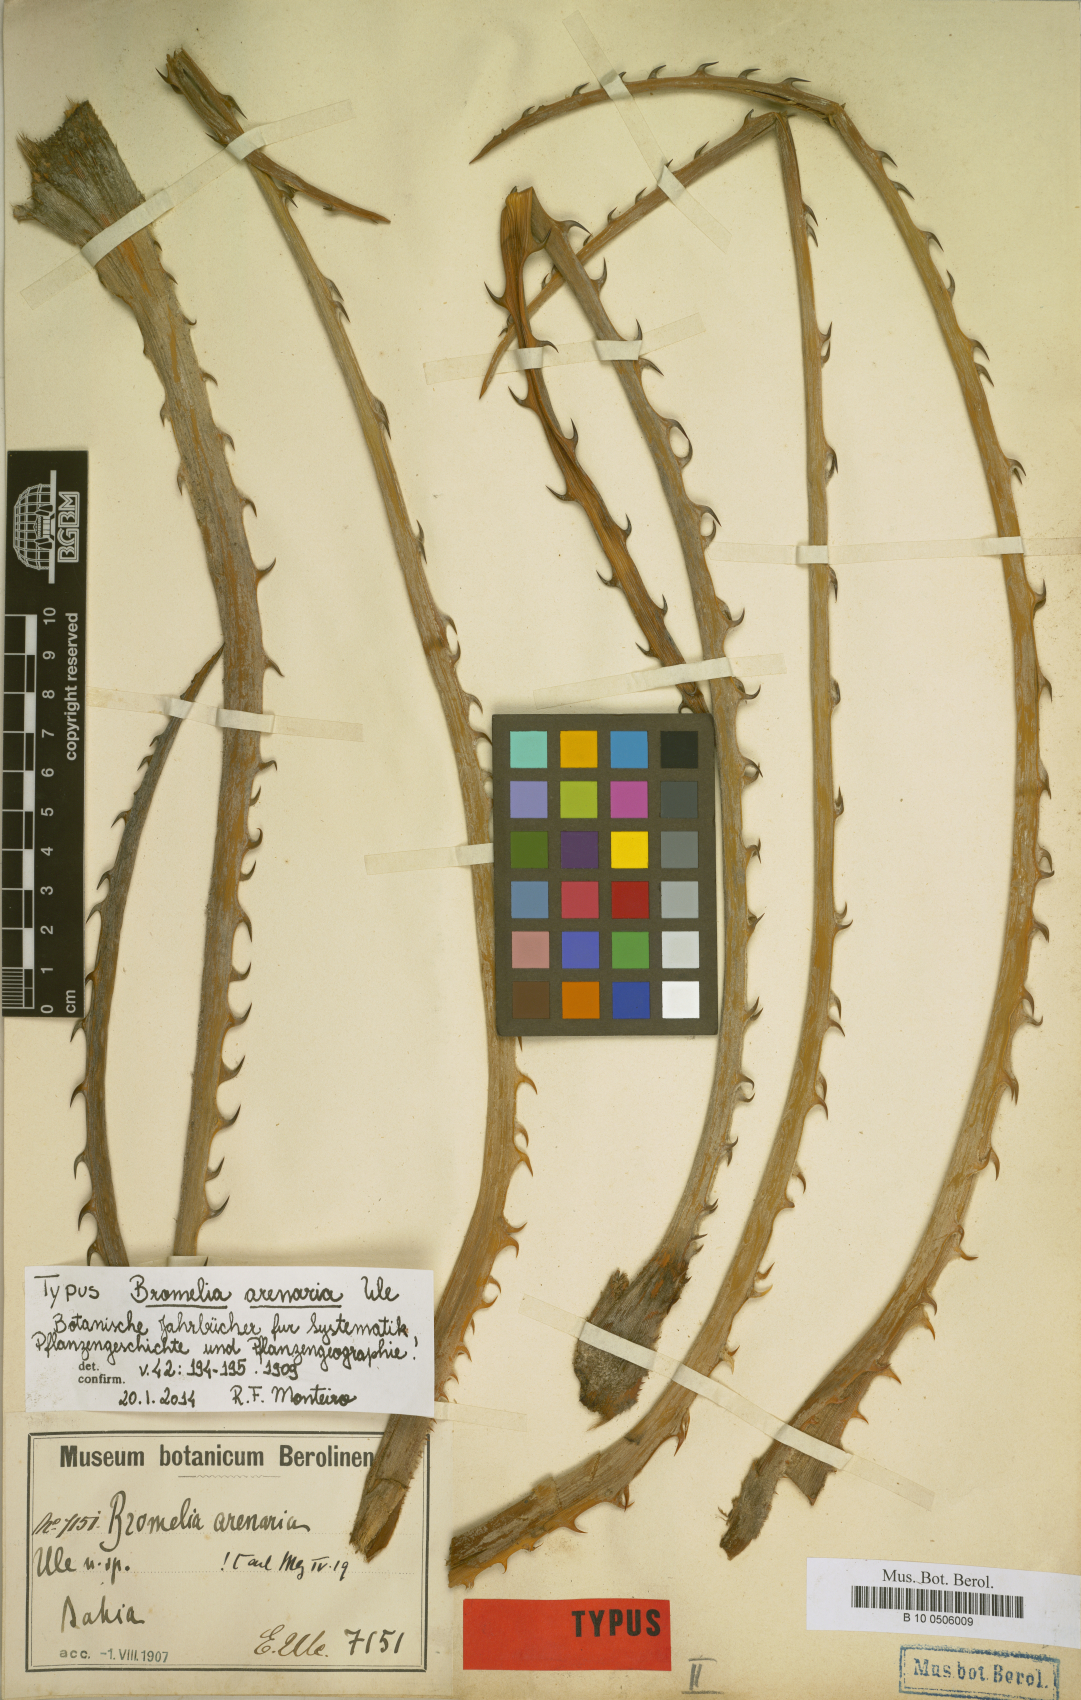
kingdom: Plantae
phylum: Tracheophyta
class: Liliopsida
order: Poales
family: Bromeliaceae
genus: Bromelia
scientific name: Bromelia arenaria
